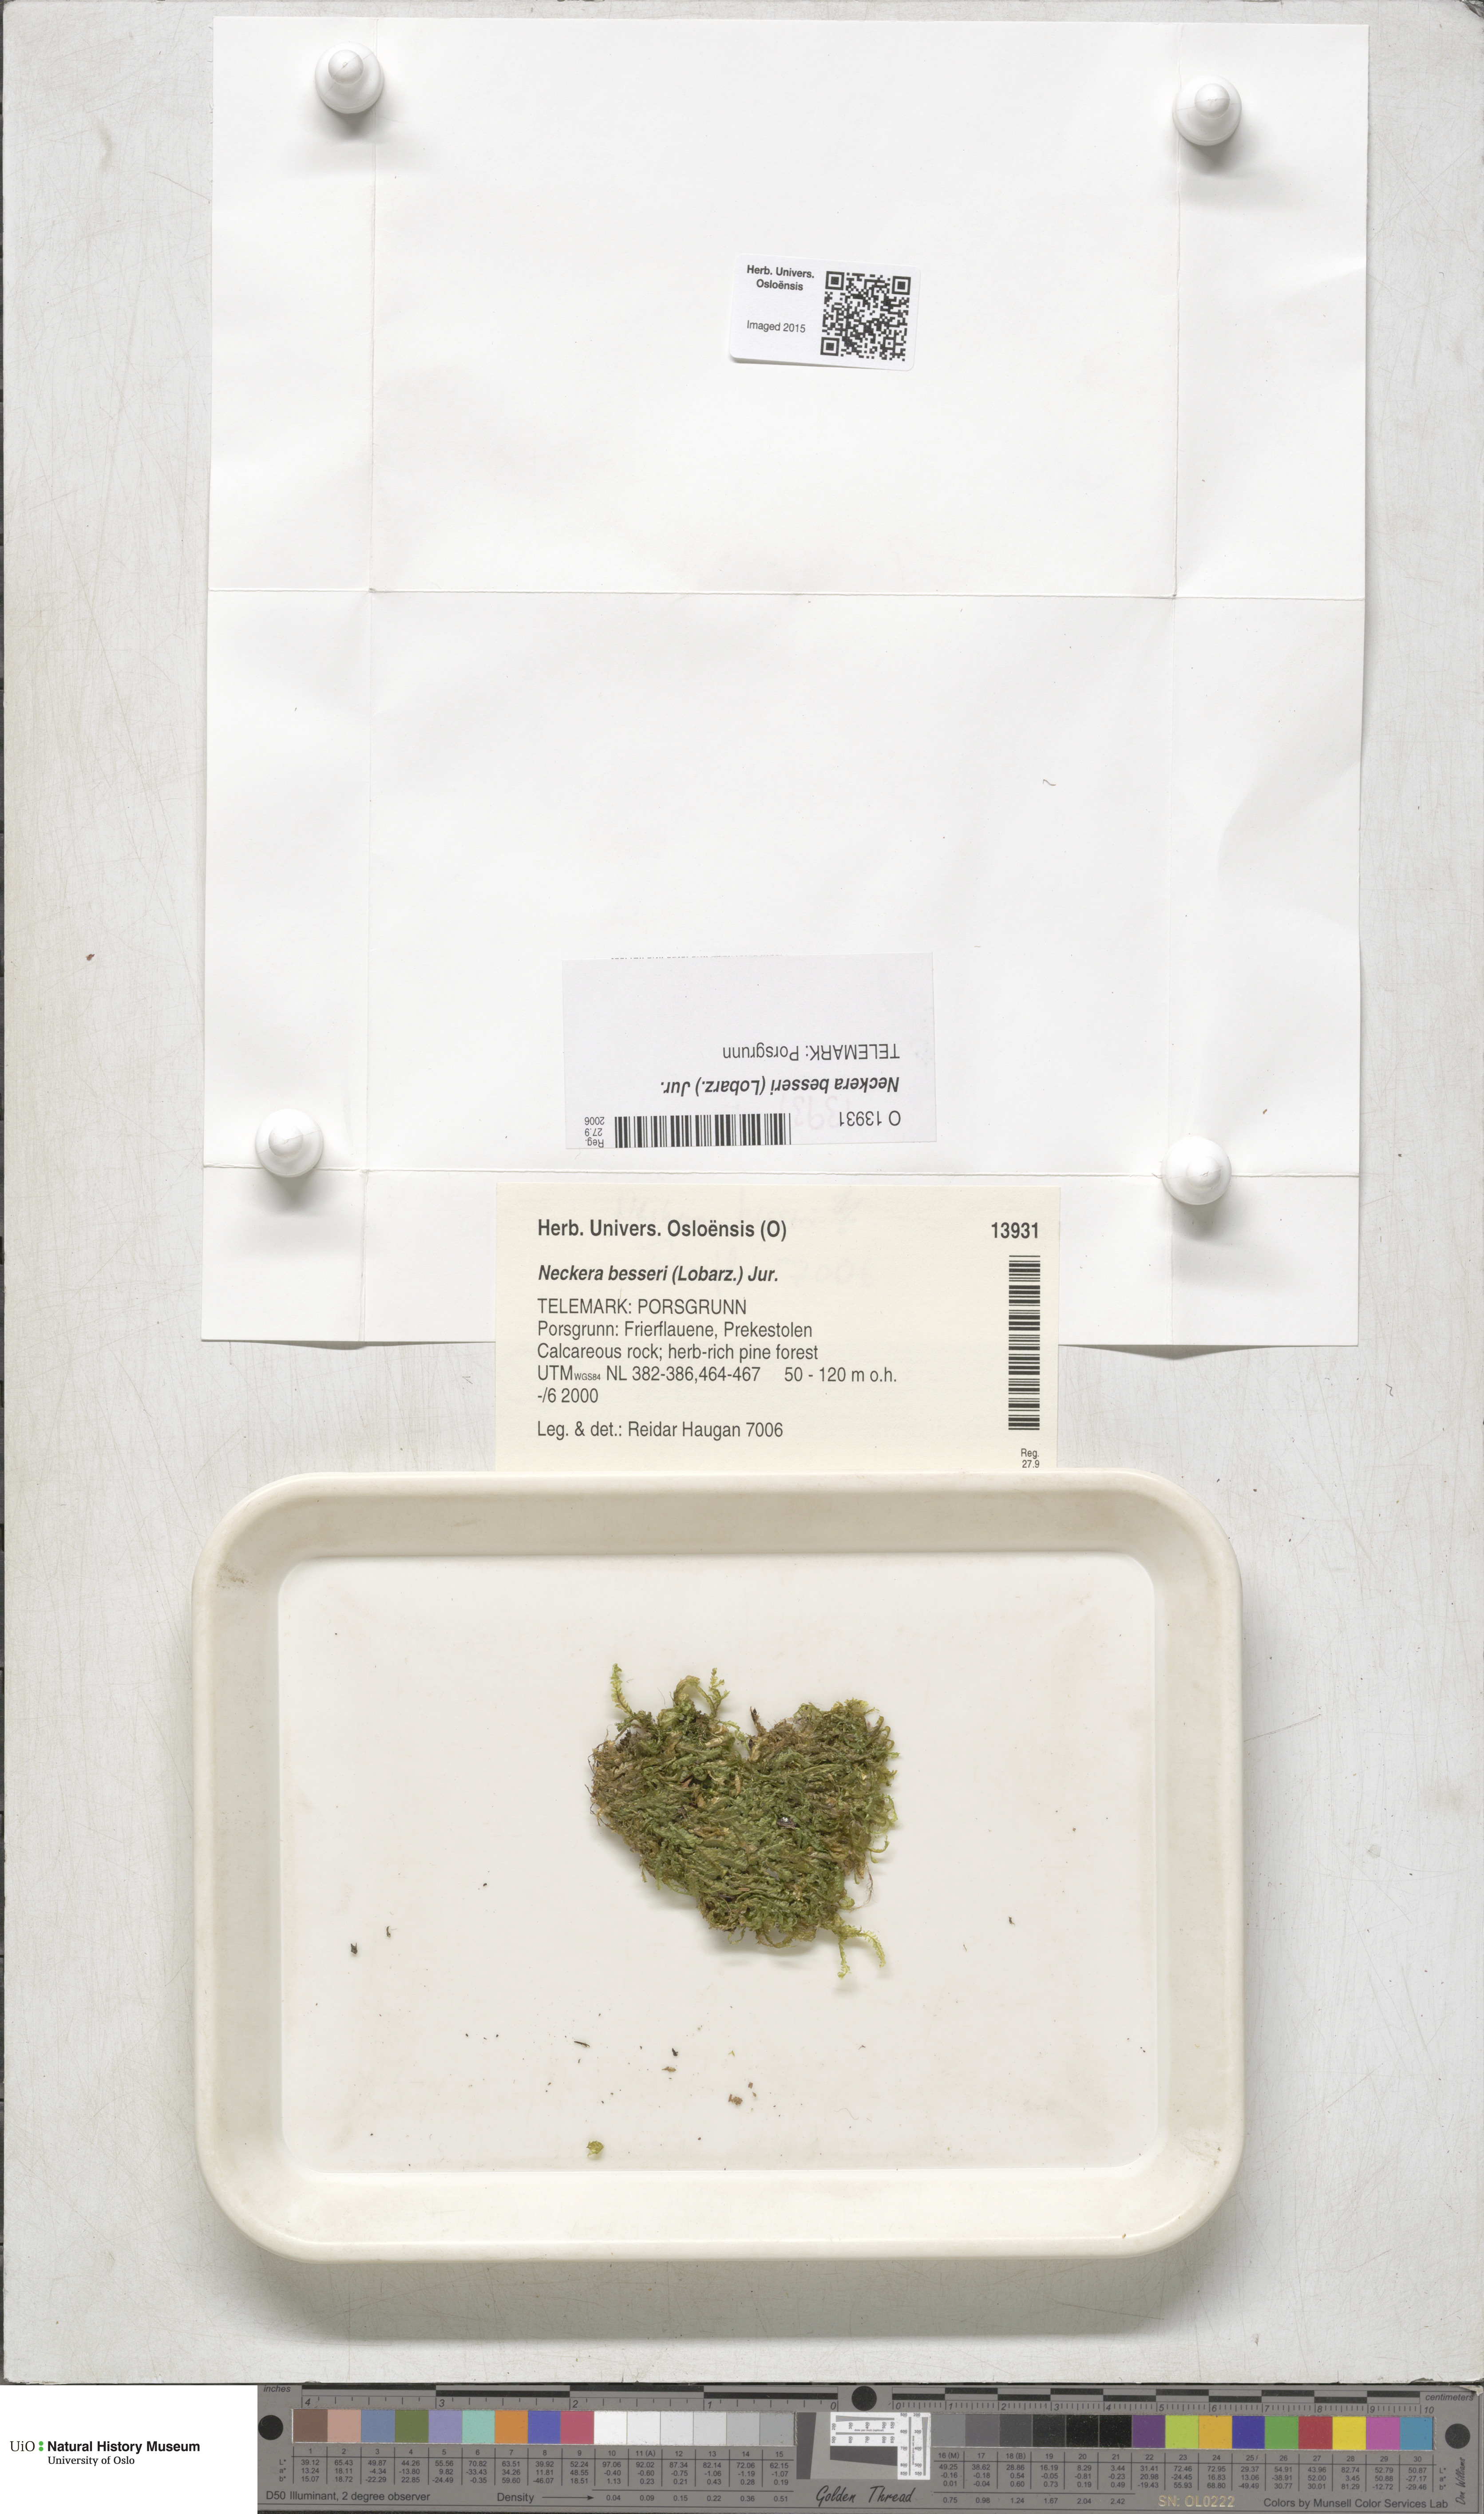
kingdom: Plantae
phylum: Bryophyta
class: Bryopsida
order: Hypnales
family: Neckeraceae
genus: Alleniella
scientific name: Alleniella besseri
